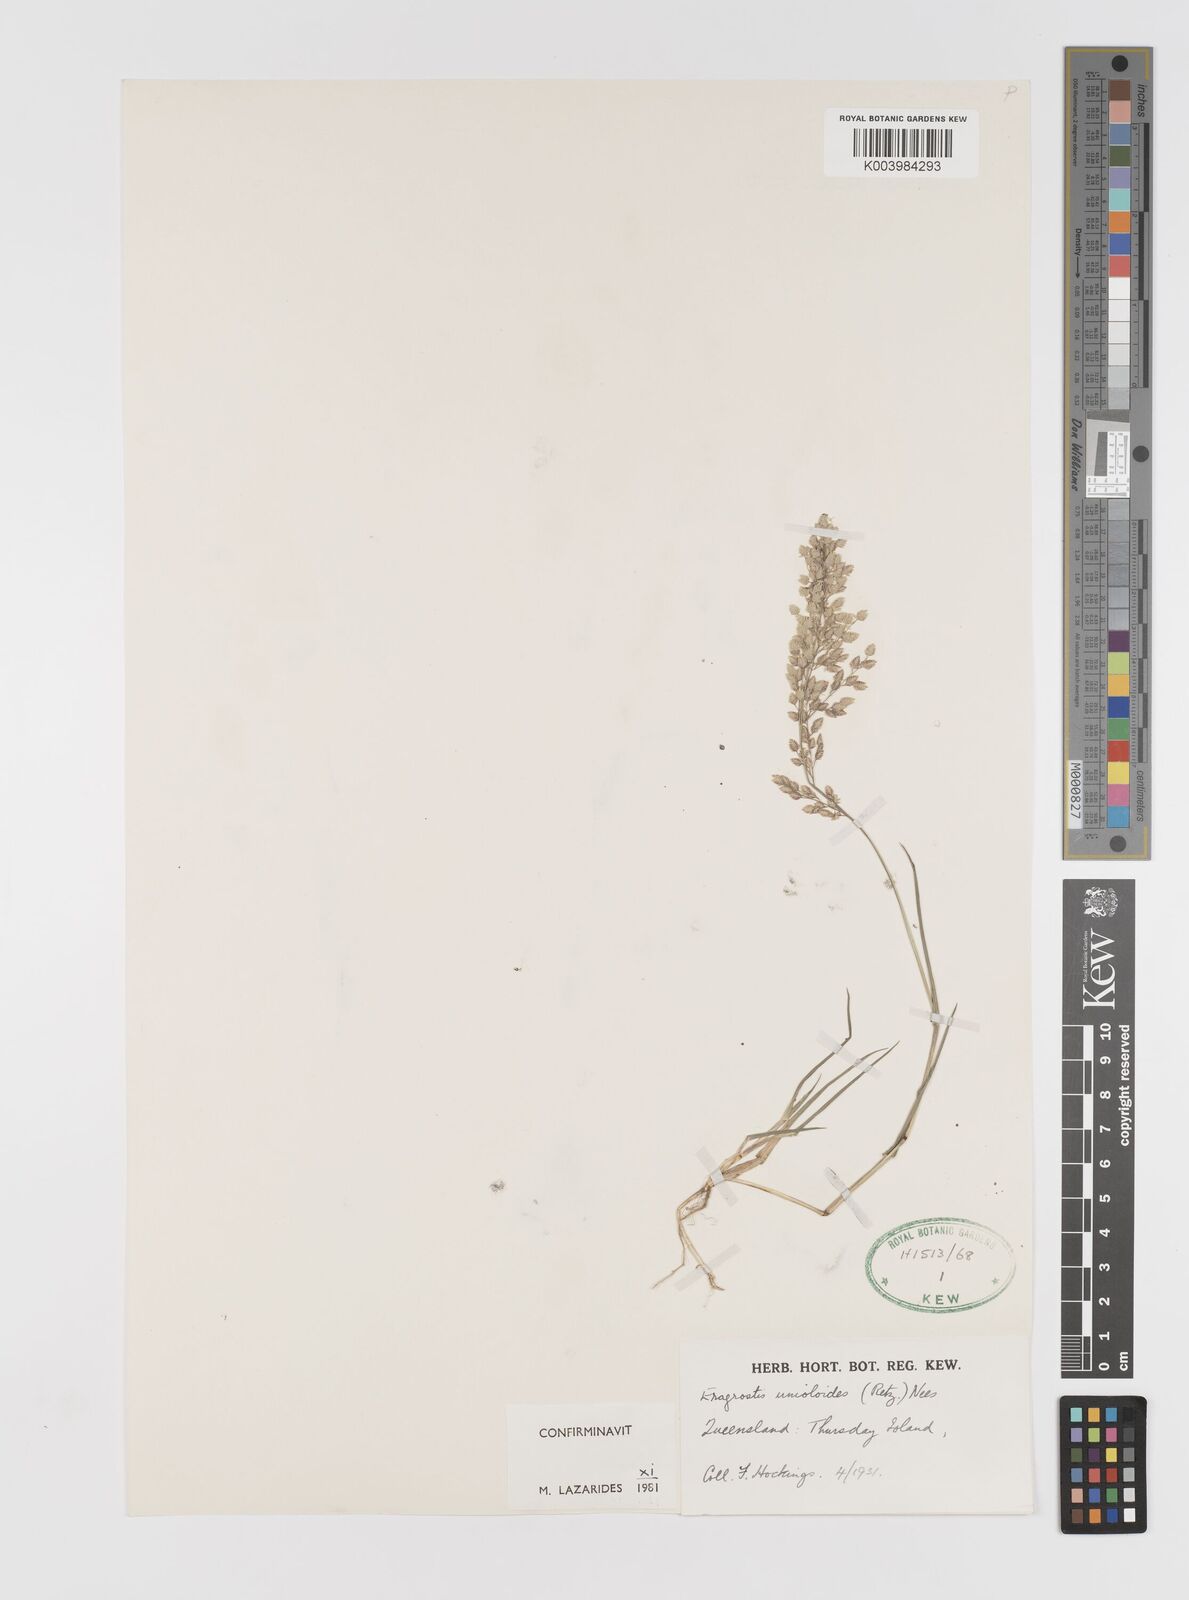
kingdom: Plantae
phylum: Tracheophyta
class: Liliopsida
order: Poales
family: Poaceae
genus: Eragrostis
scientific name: Eragrostis unioloides
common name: Chinese lovegrass
